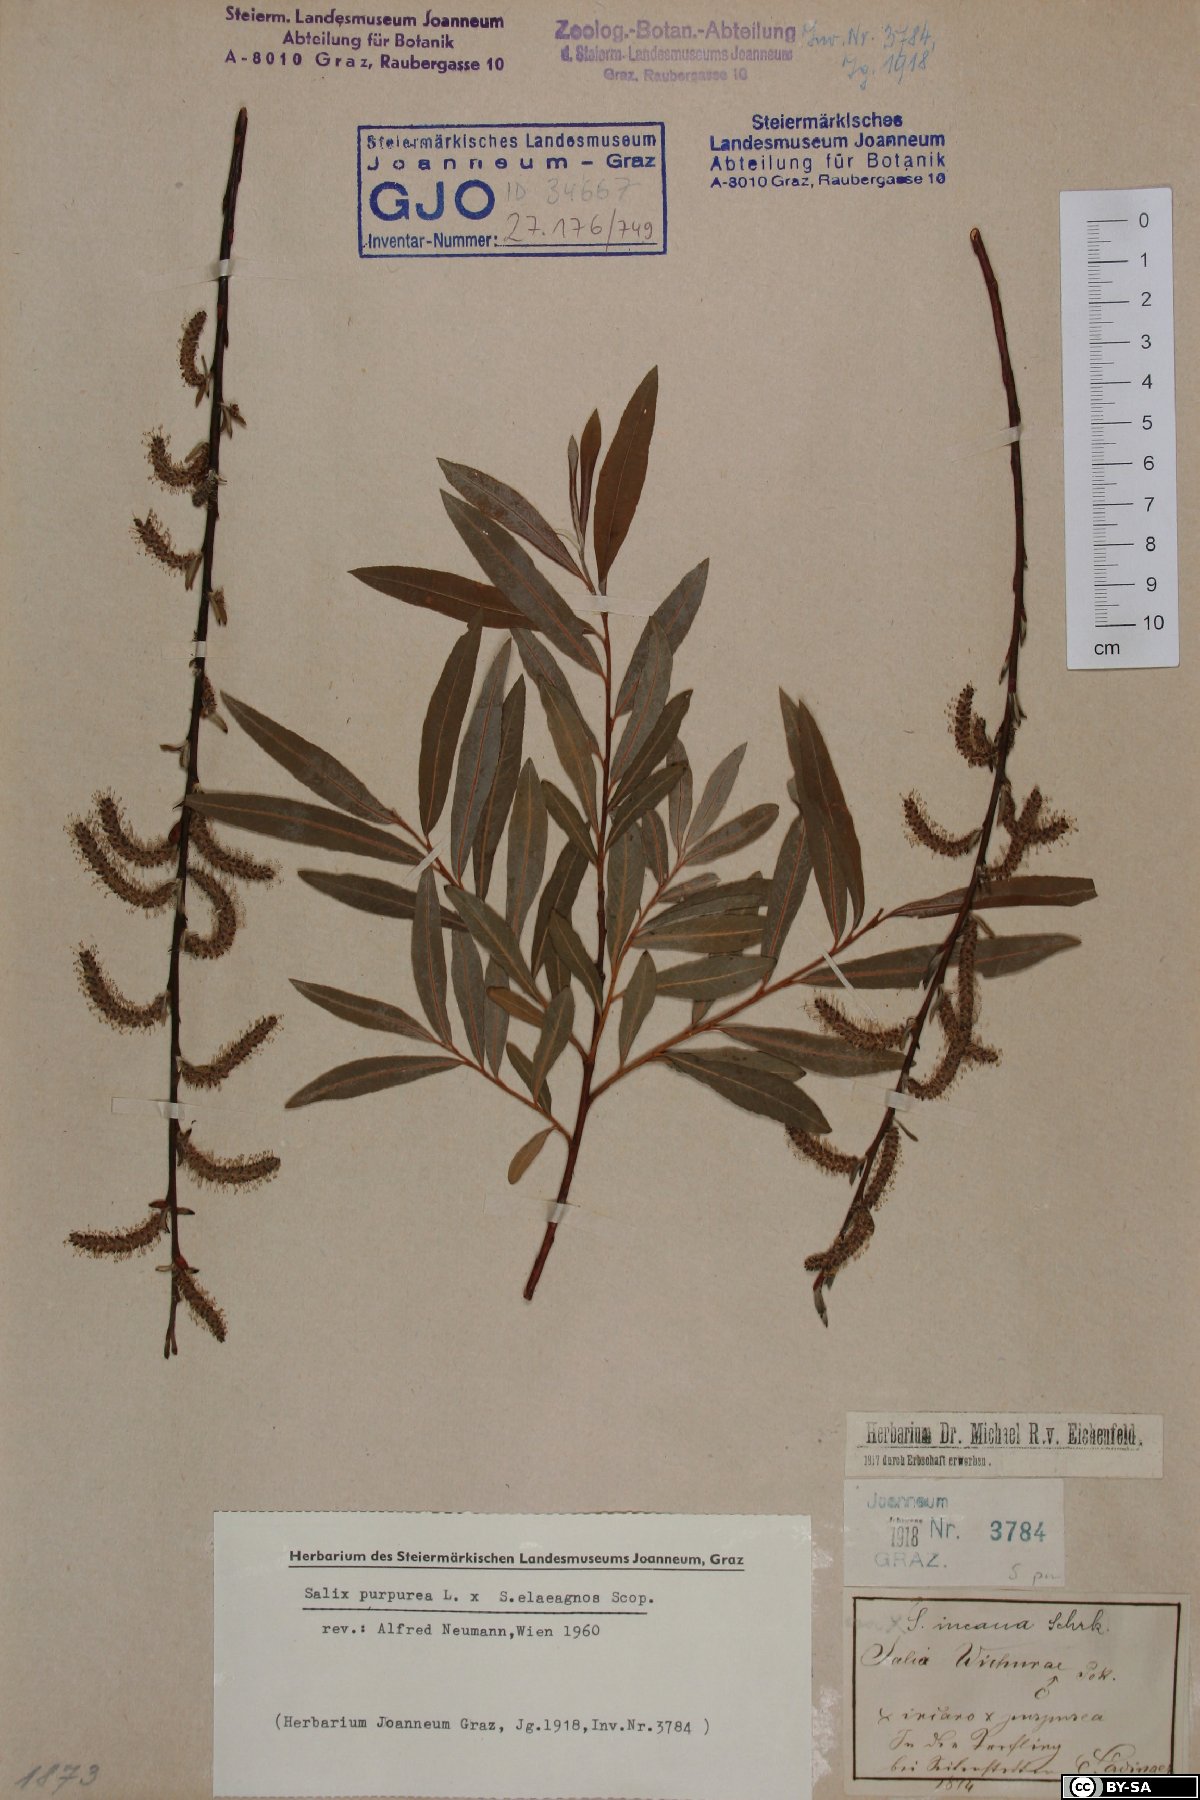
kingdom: Plantae
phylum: Tracheophyta
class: Magnoliopsida
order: Malpighiales
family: Salicaceae
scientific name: Salicaceae
